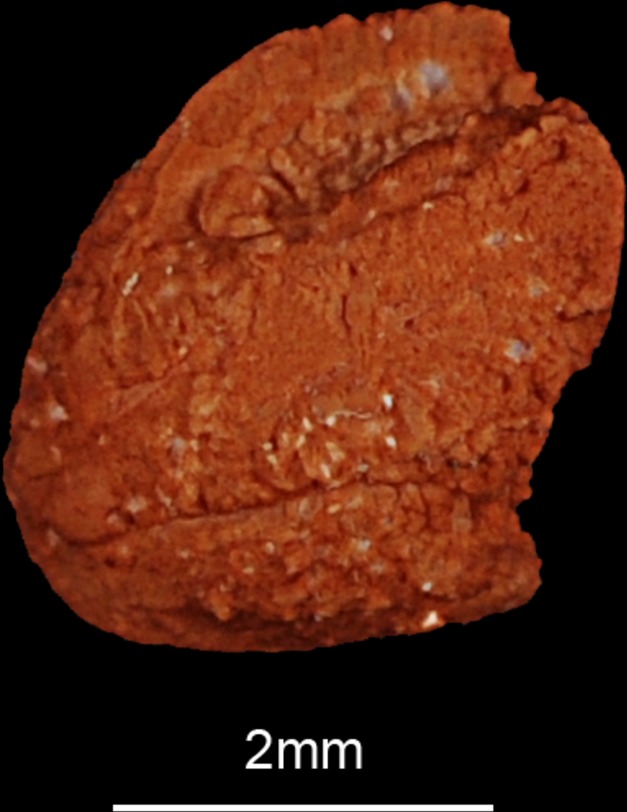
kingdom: Animalia
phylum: Chordata
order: Siluriformes
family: Claroteidae
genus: Auchenoglanis
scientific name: Auchenoglanis biscutatus
